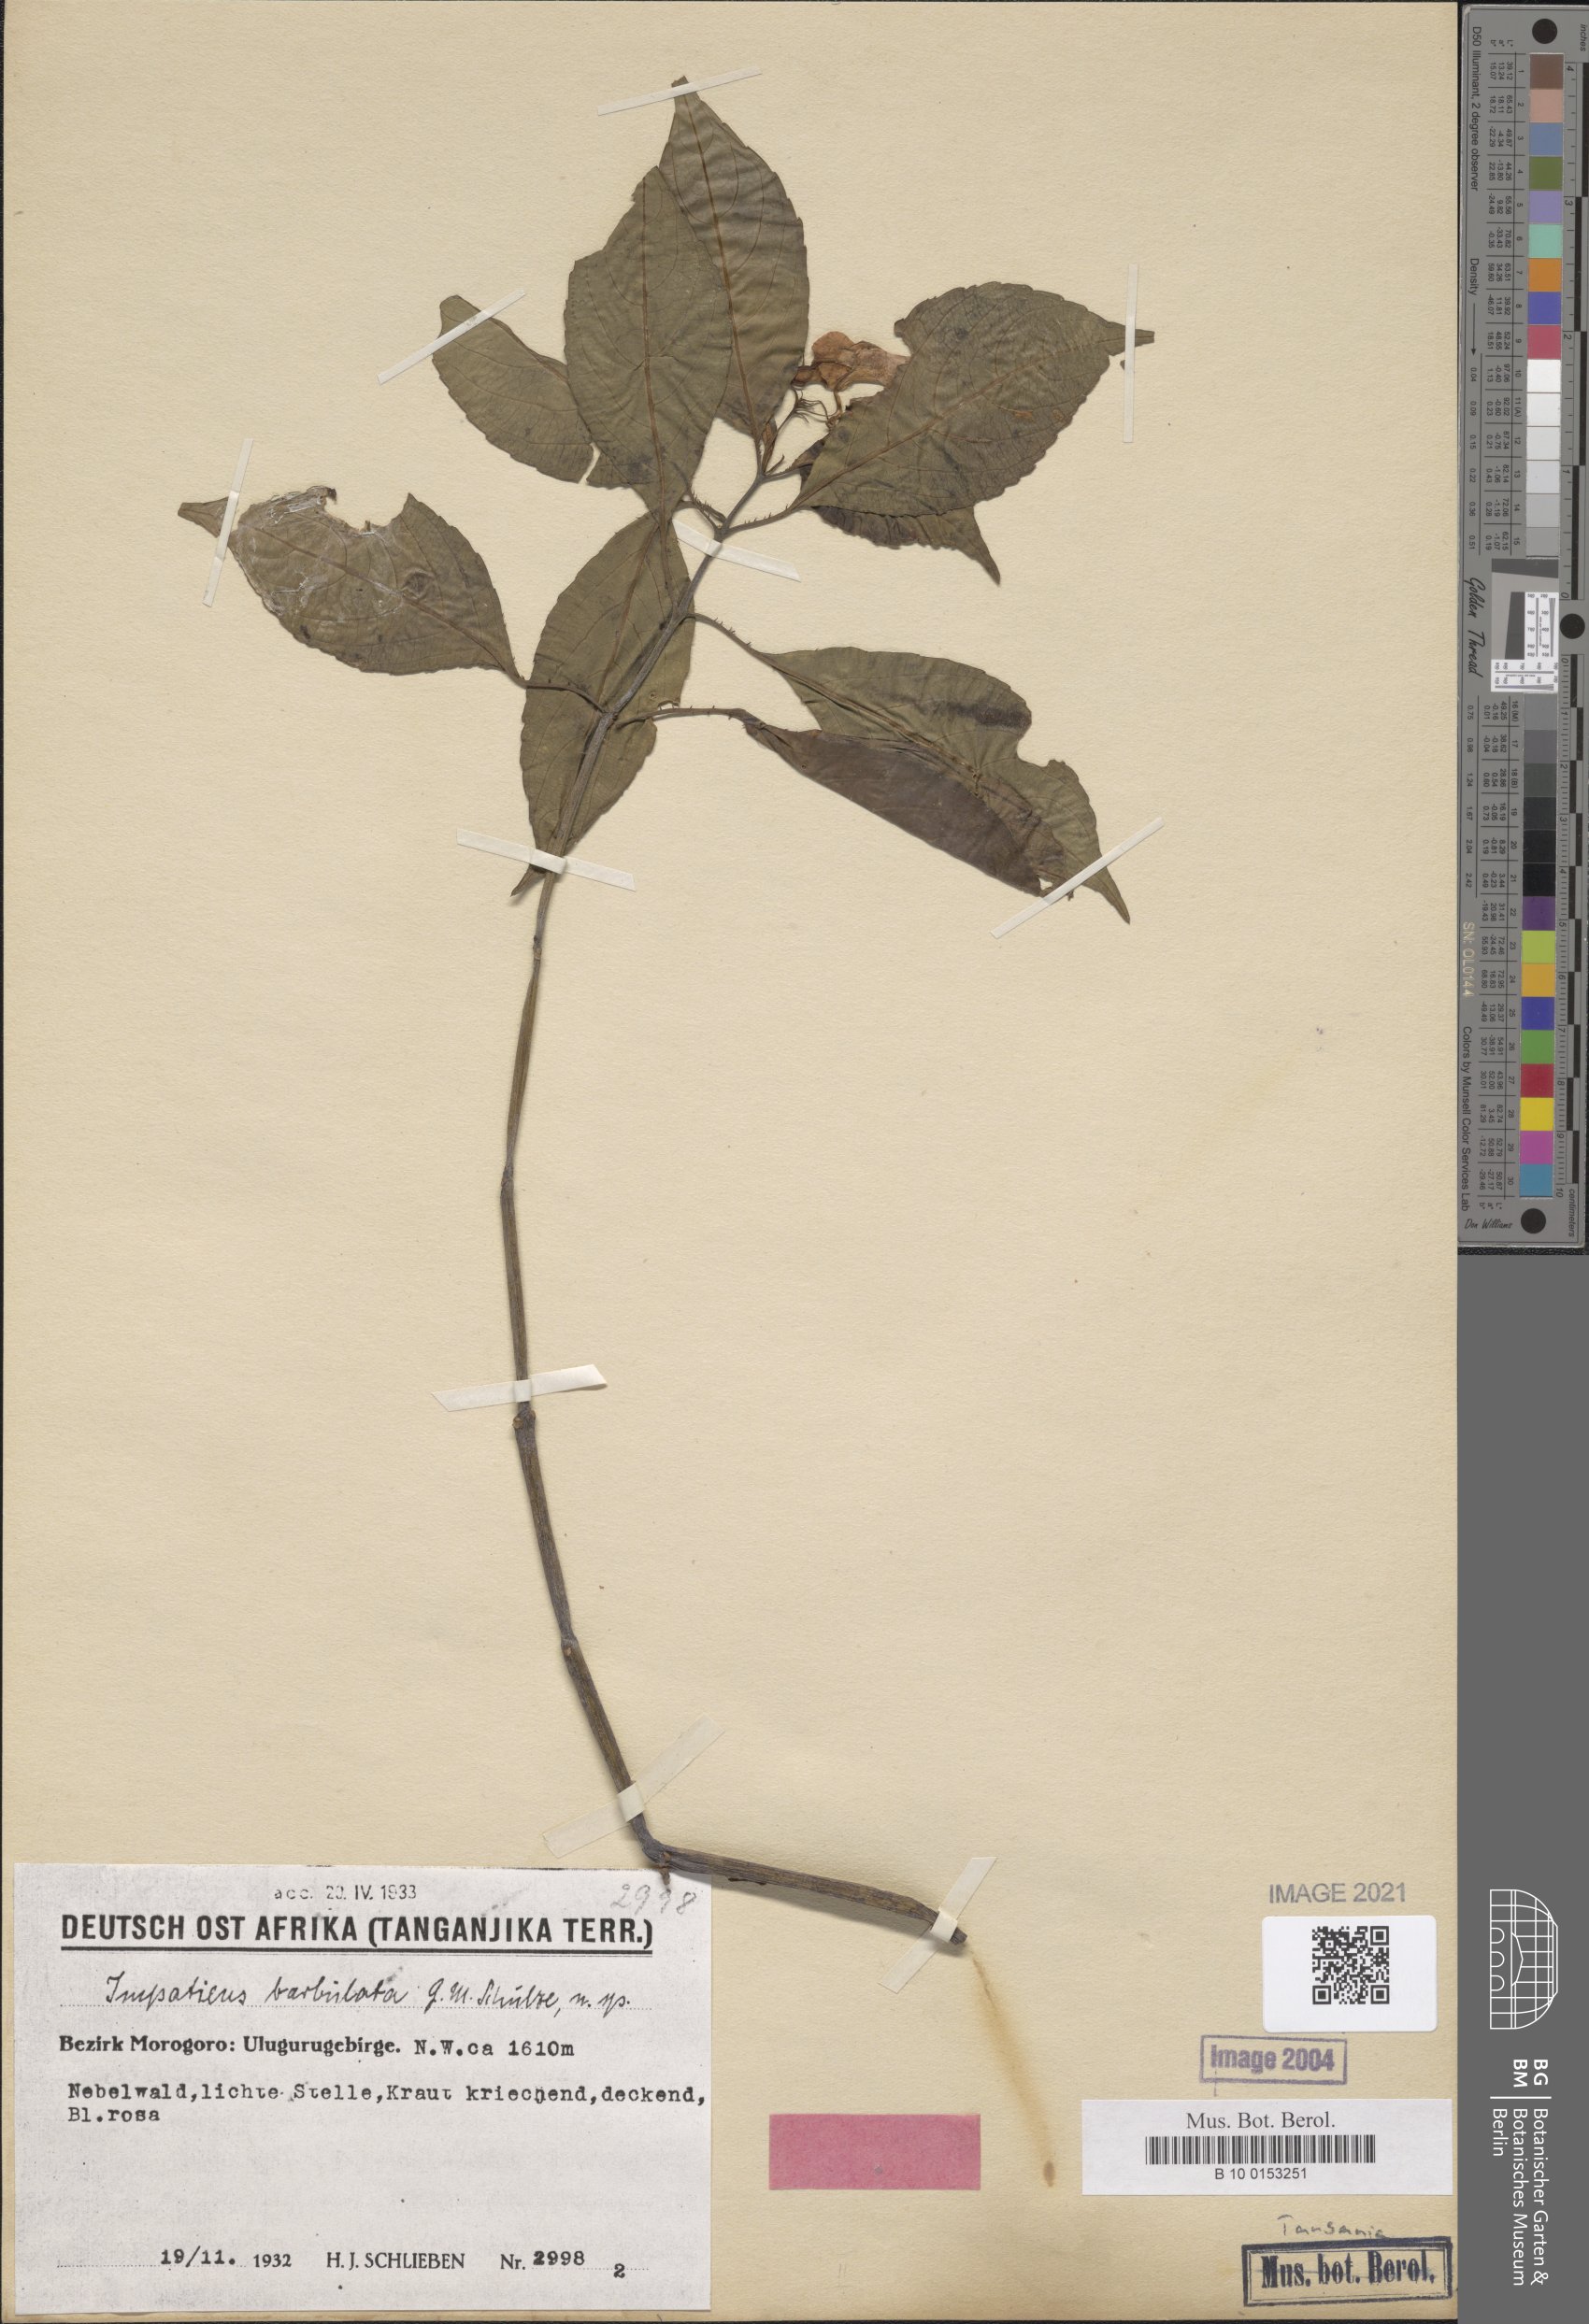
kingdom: Plantae
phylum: Tracheophyta
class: Magnoliopsida
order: Ericales
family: Balsaminaceae
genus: Impatiens
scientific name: Impatiens barbulata
